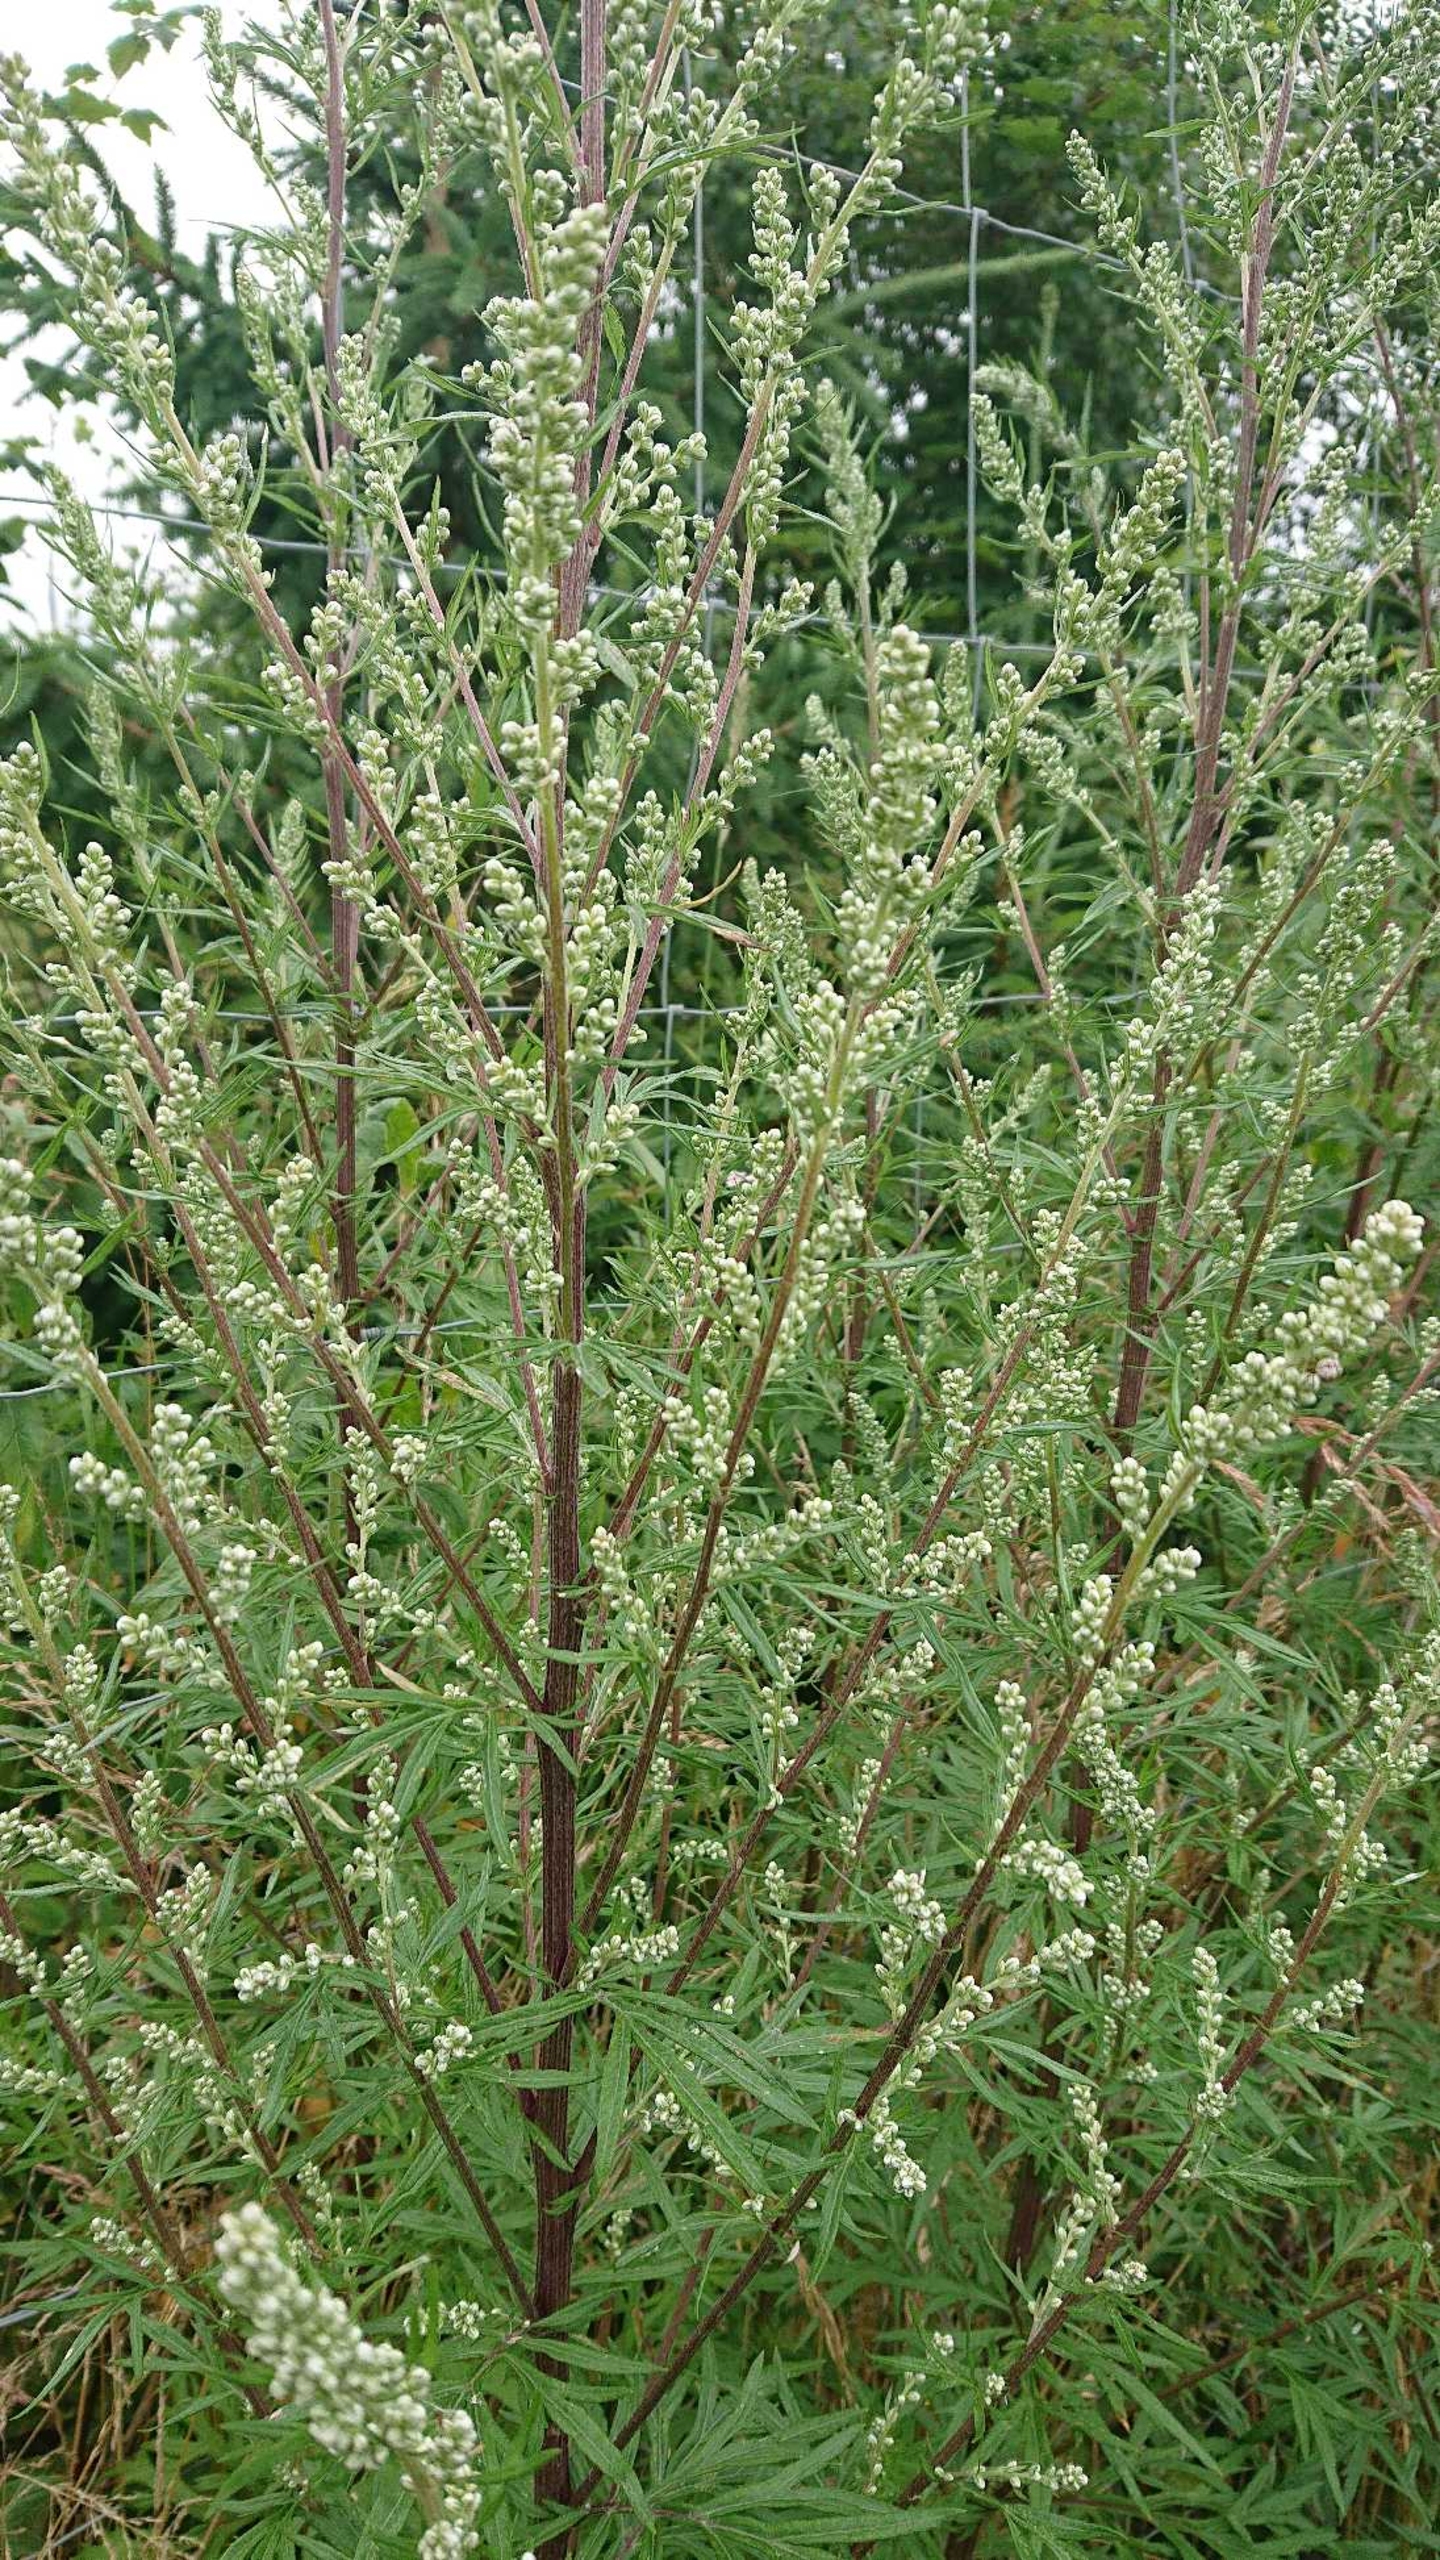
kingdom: Plantae
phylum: Tracheophyta
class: Magnoliopsida
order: Asterales
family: Asteraceae
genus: Artemisia
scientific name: Artemisia vulgaris
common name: Grå-bynke
